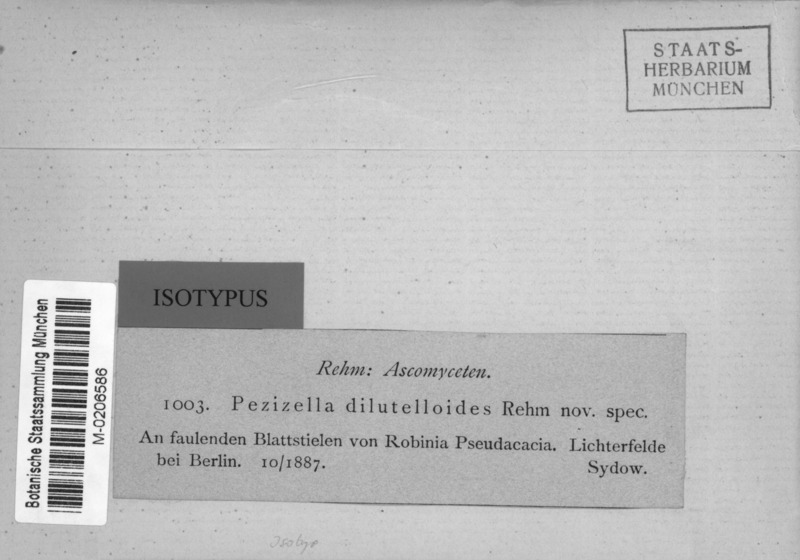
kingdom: Fungi
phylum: Ascomycota
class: Leotiomycetes
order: Helotiales
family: Helotiaceae
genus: Pachydisca
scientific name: Pachydisca dilutelloides
